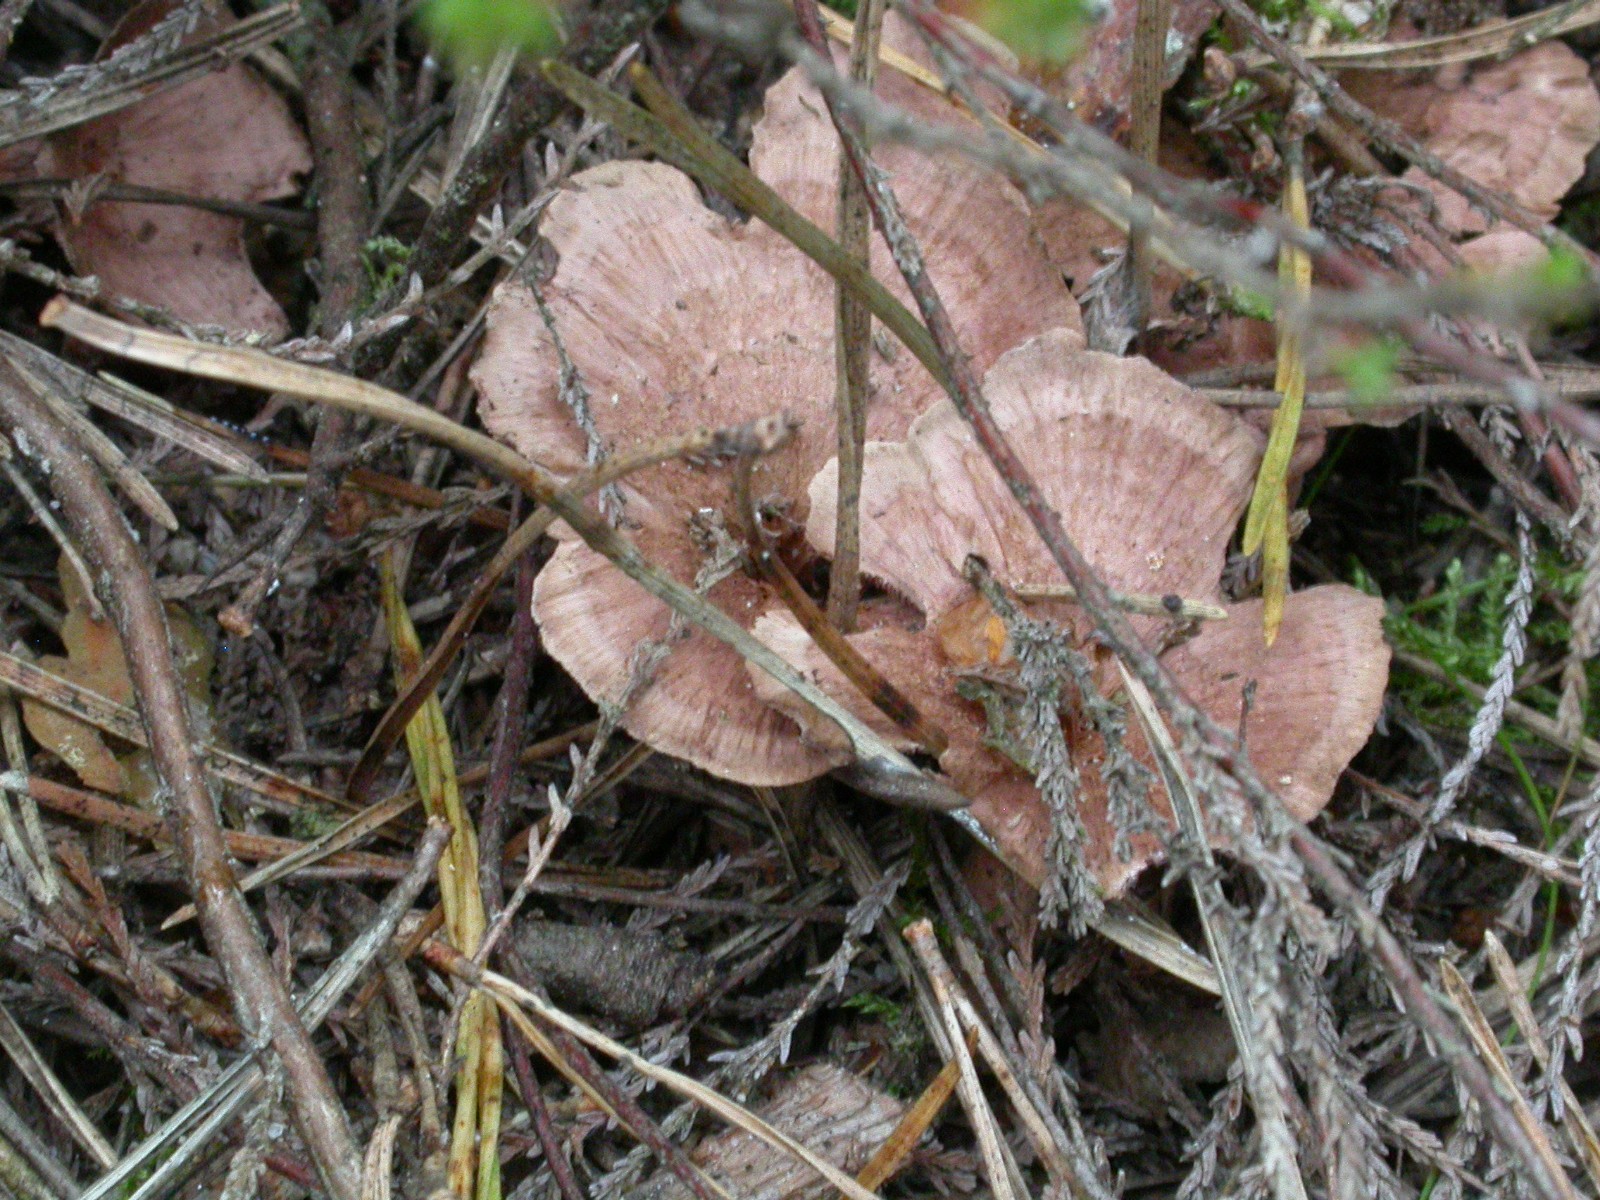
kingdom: Fungi
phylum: Basidiomycota
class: Agaricomycetes
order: Thelephorales
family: Bankeraceae
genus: Hydnellum
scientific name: Hydnellum concrescens
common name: bæltet korkpigsvamp
